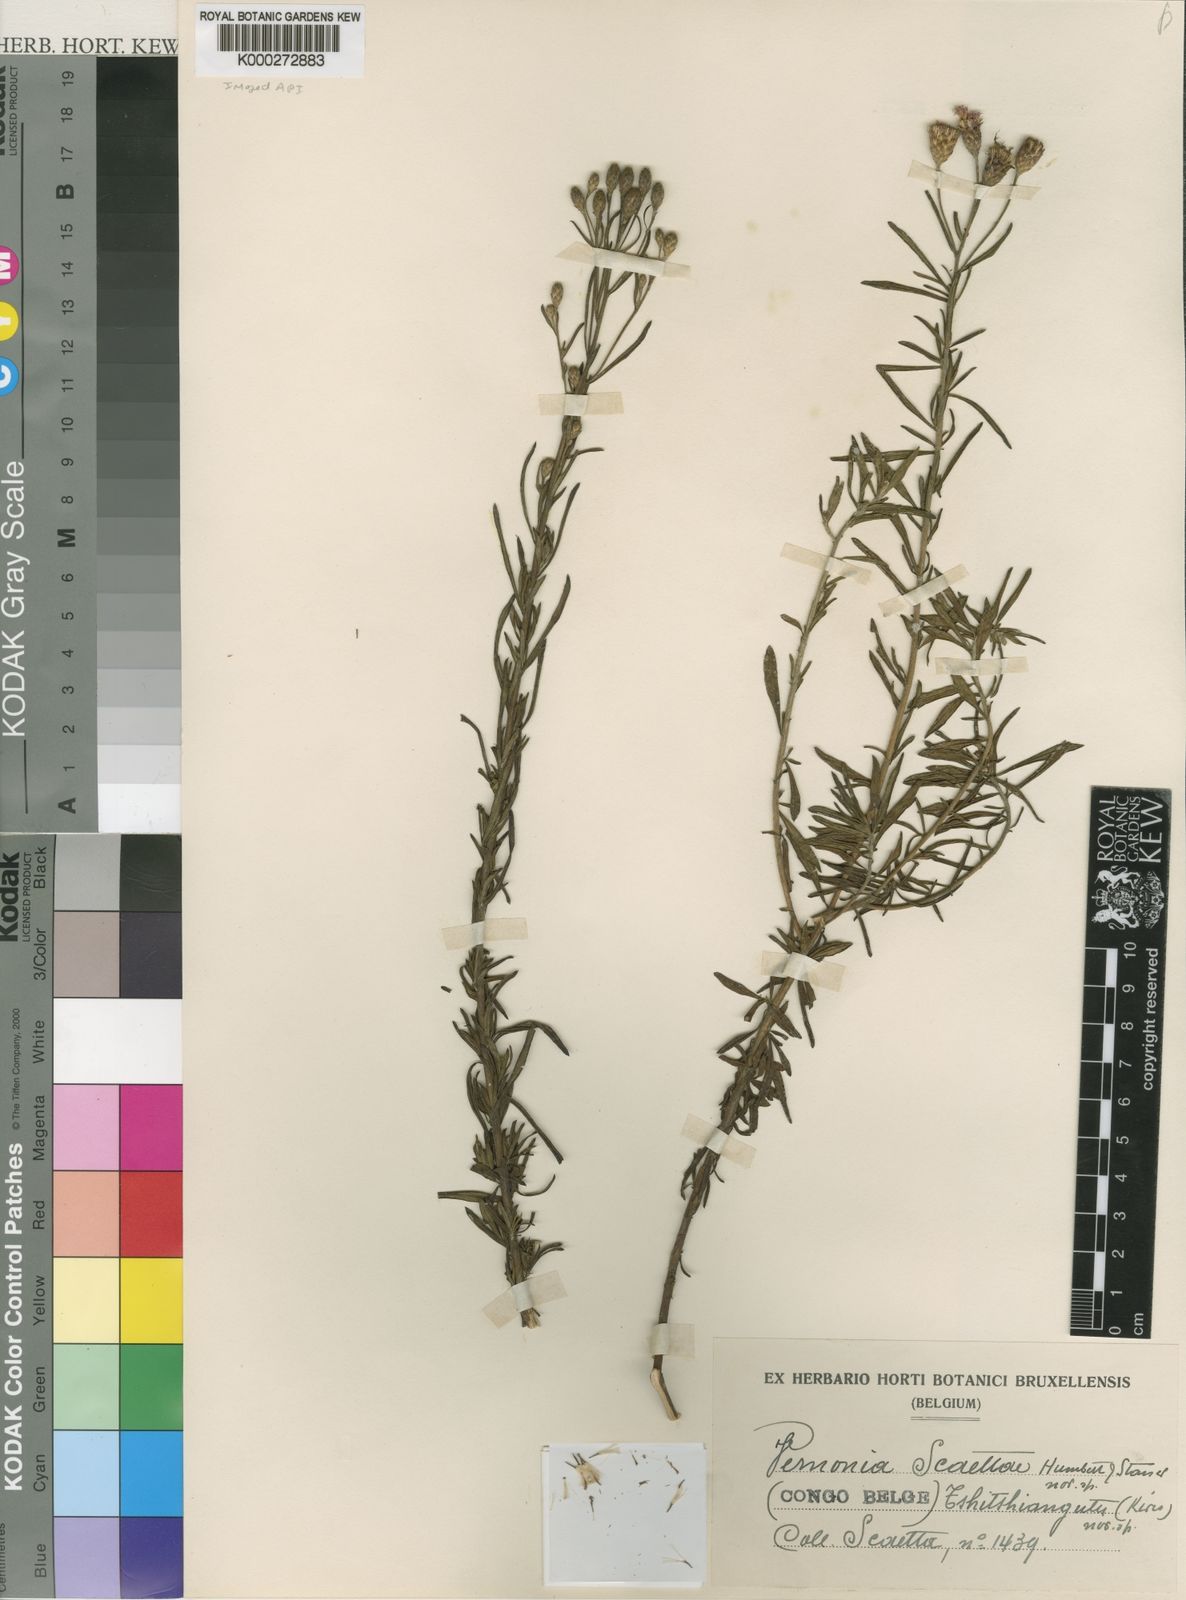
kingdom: Plantae
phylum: Tracheophyta
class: Magnoliopsida
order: Asterales
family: Asteraceae
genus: Vernonia
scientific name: Vernonia scaettae
